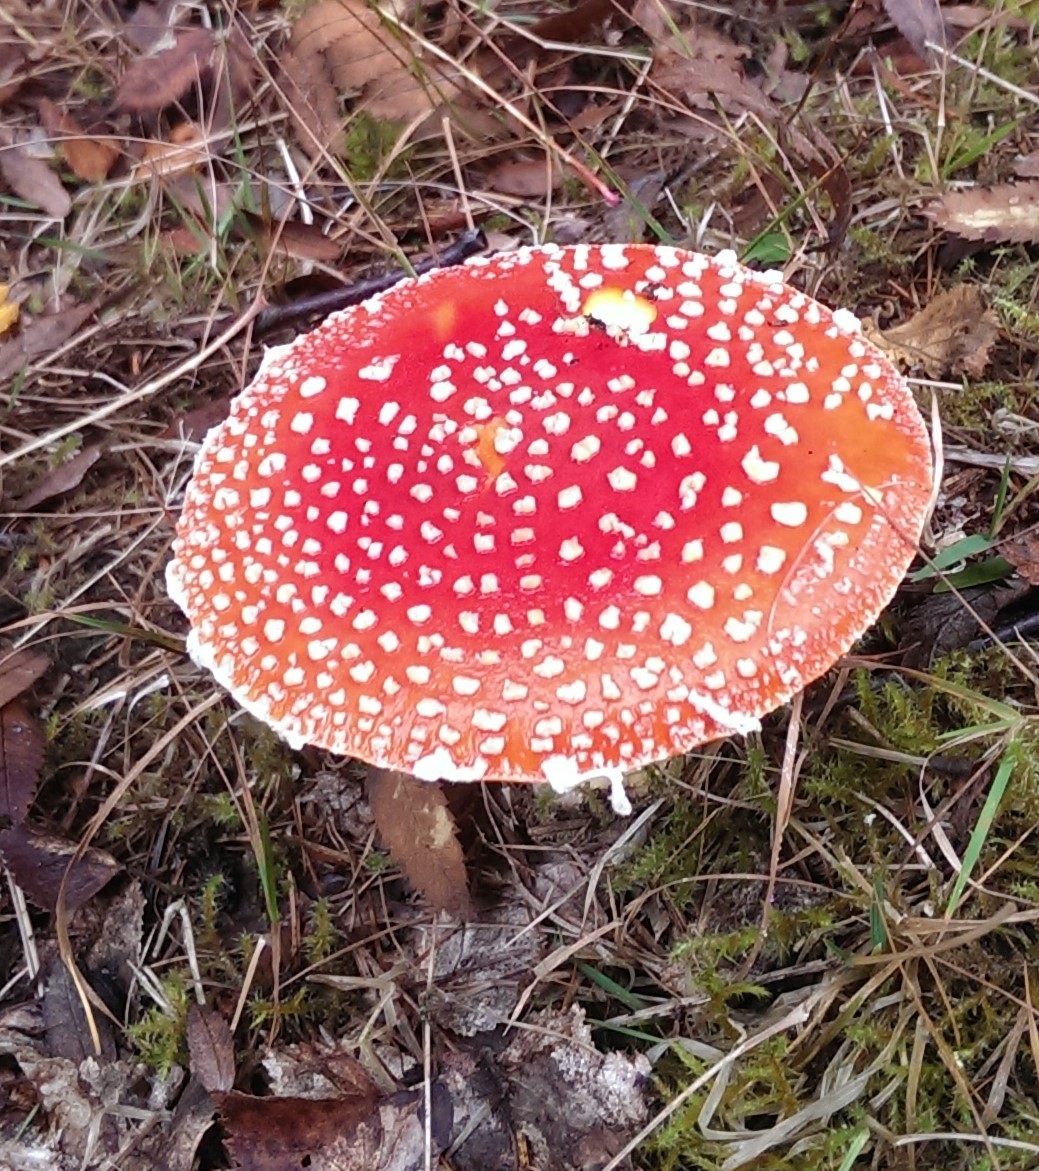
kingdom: Fungi
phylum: Basidiomycota
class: Agaricomycetes
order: Agaricales
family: Amanitaceae
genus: Amanita
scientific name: Amanita muscaria
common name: rød fluesvamp
